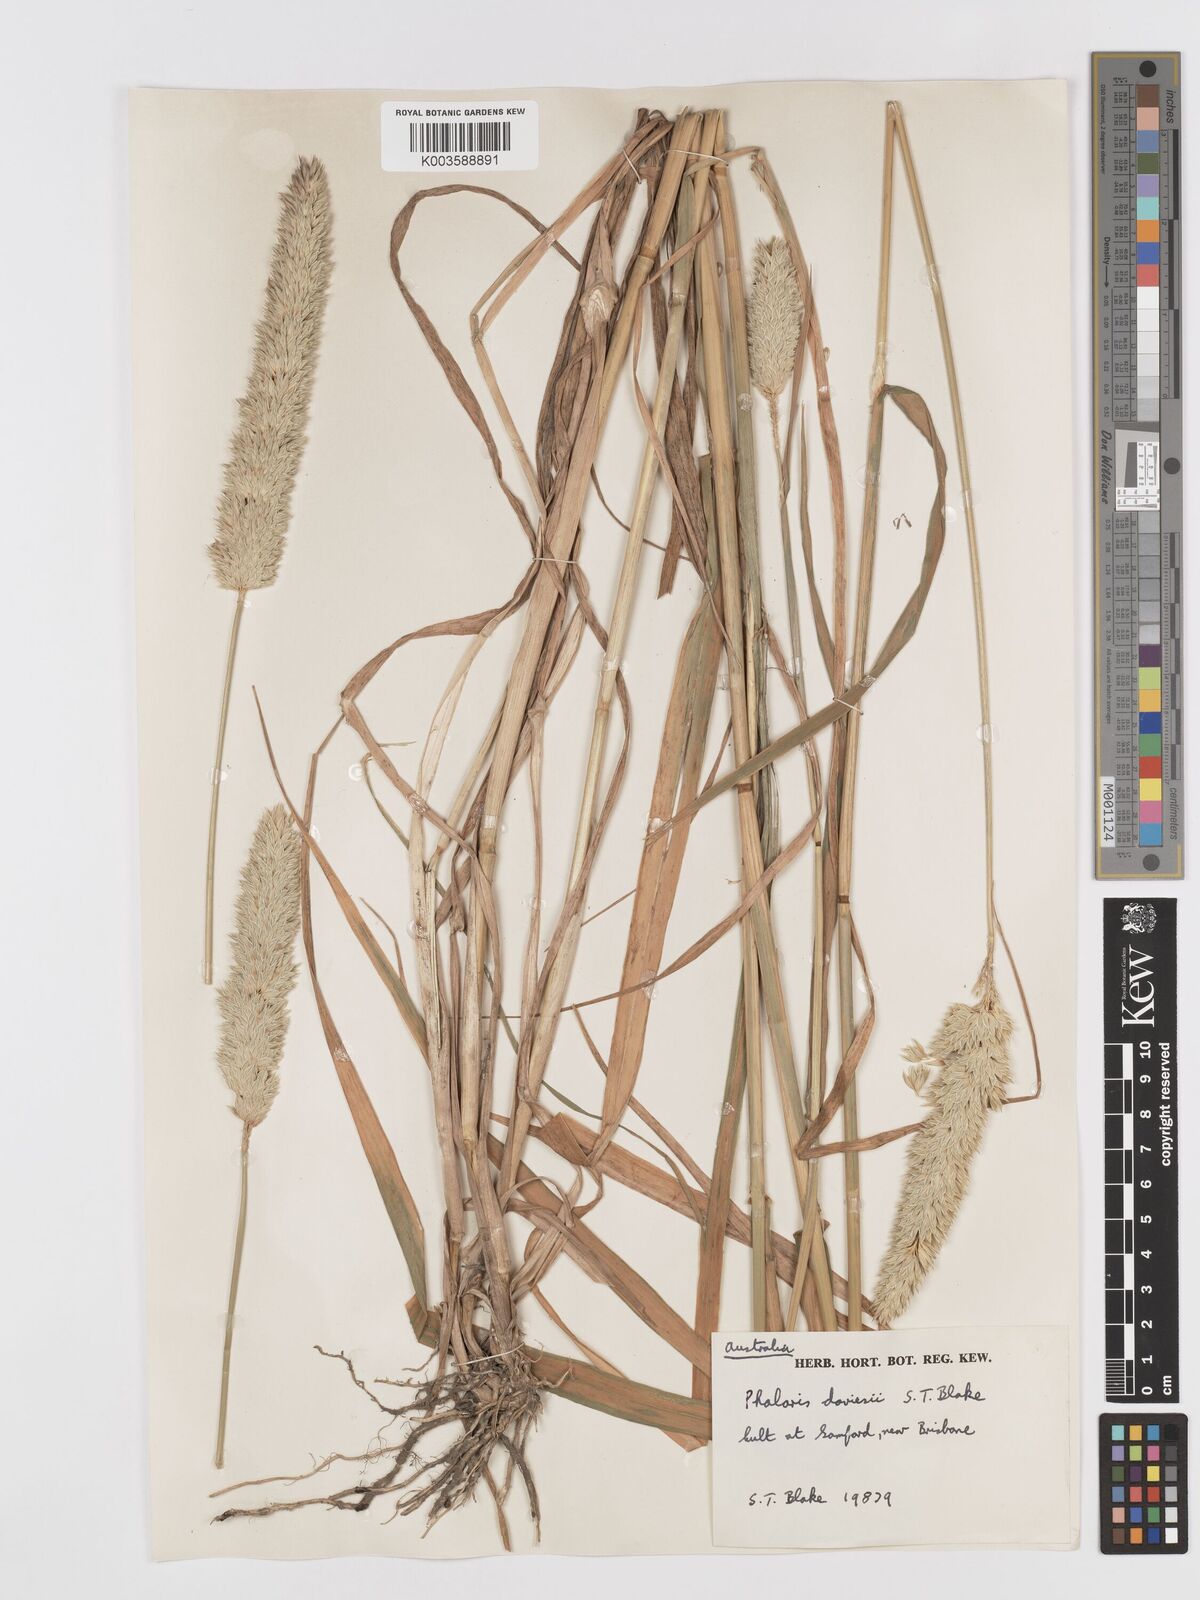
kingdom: Plantae
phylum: Tracheophyta
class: Liliopsida
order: Poales
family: Poaceae
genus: Phalaris
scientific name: Phalaris daviesii
